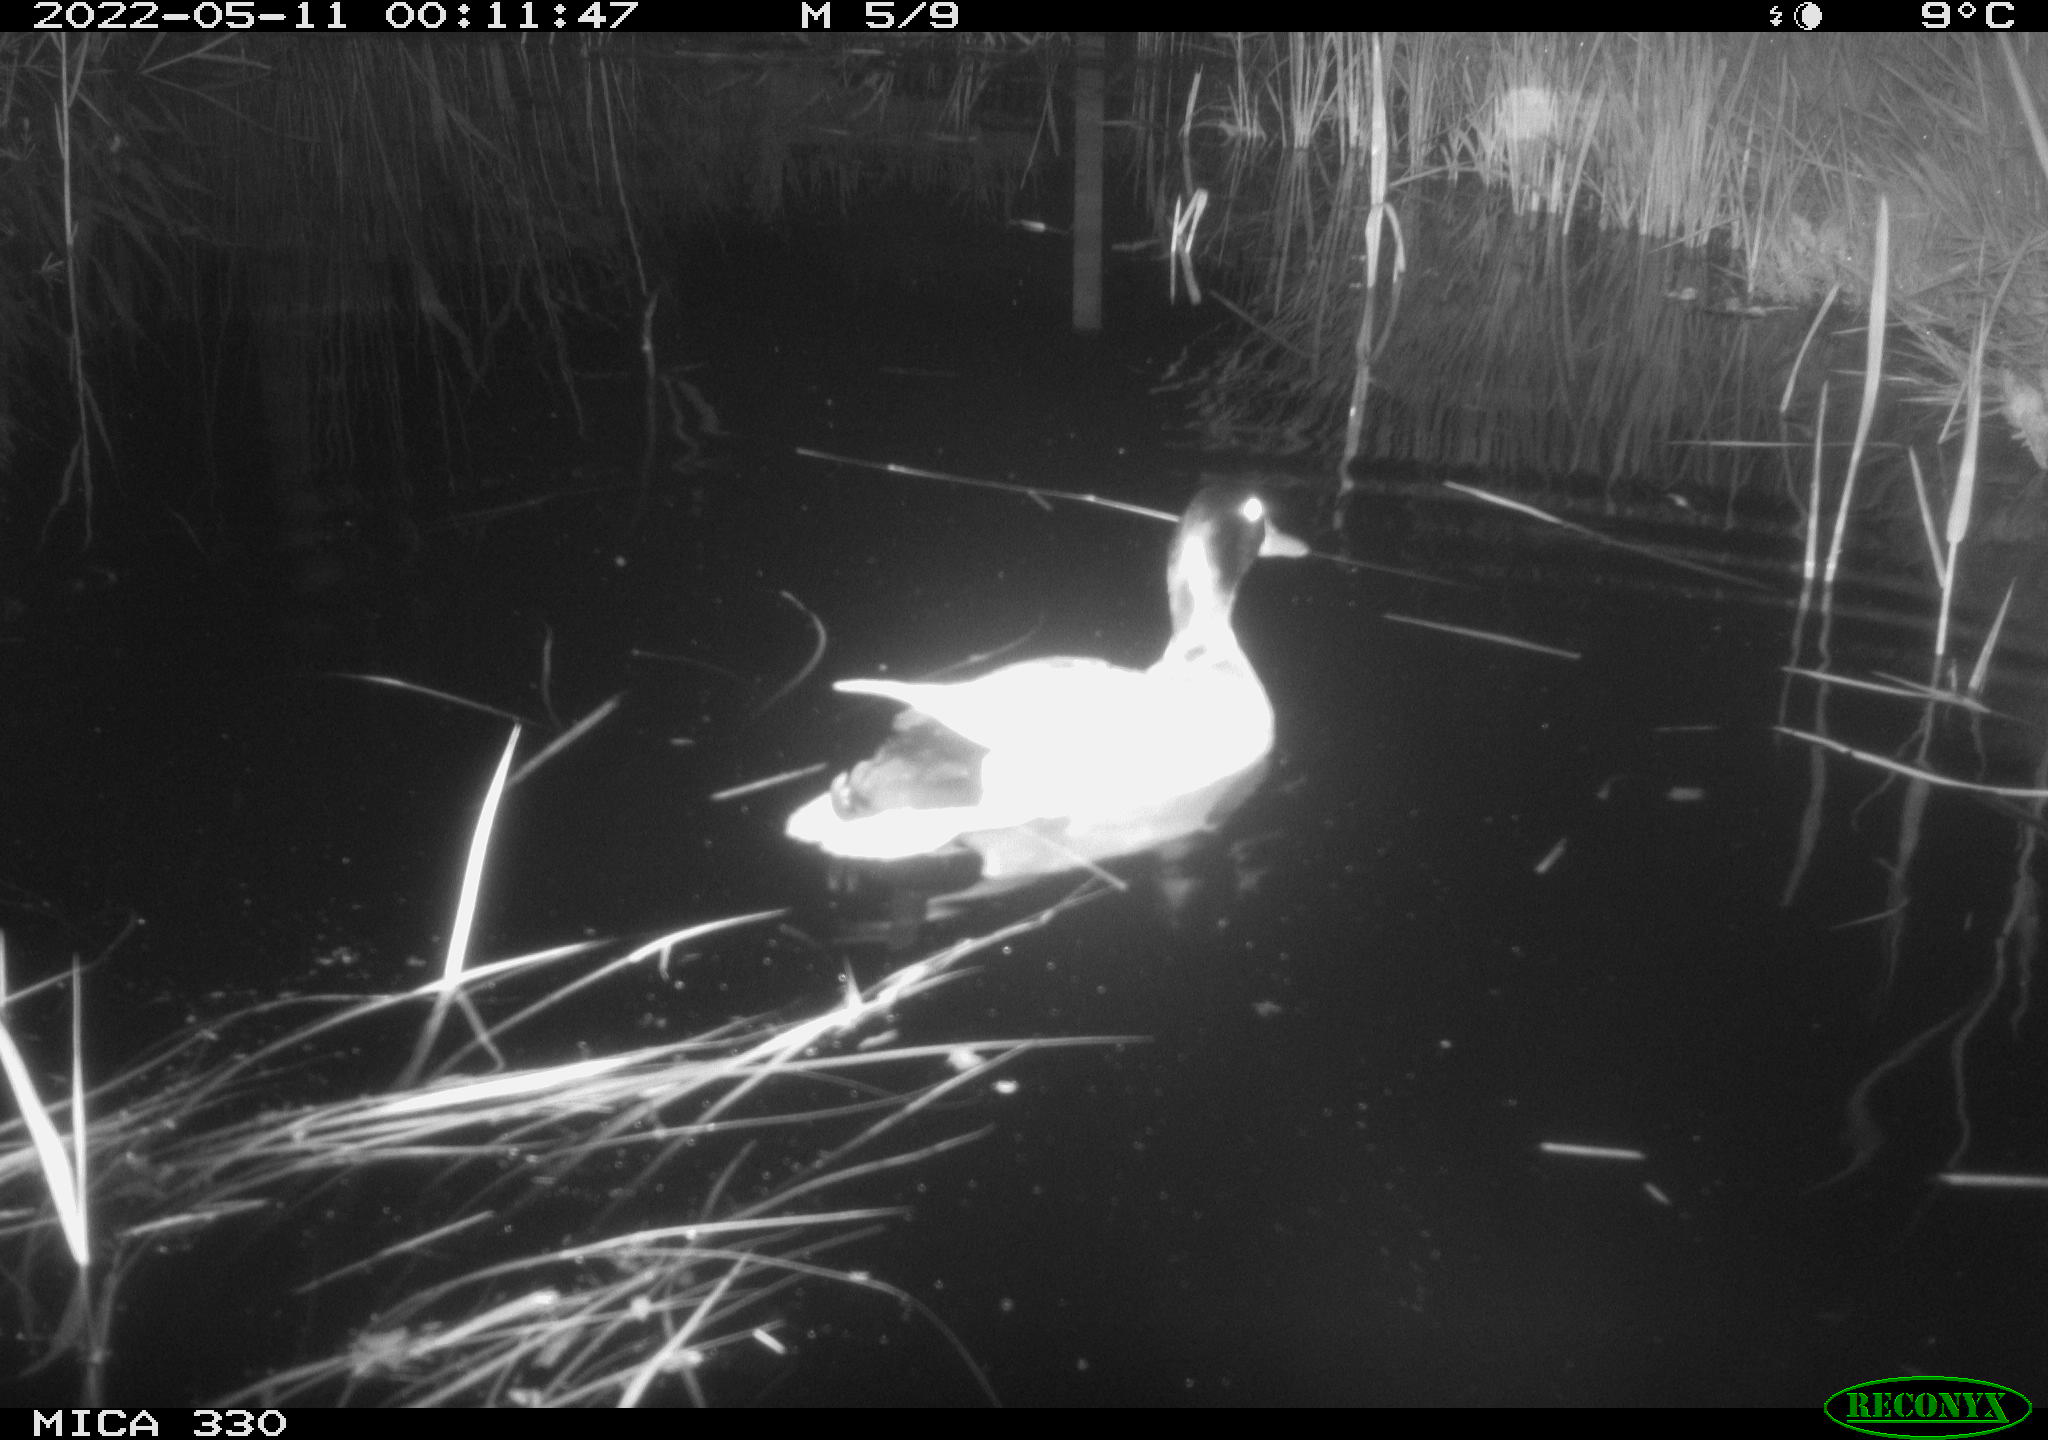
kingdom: Animalia
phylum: Chordata
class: Aves
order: Anseriformes
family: Anatidae
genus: Anas
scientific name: Anas platyrhynchos
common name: Mallard
